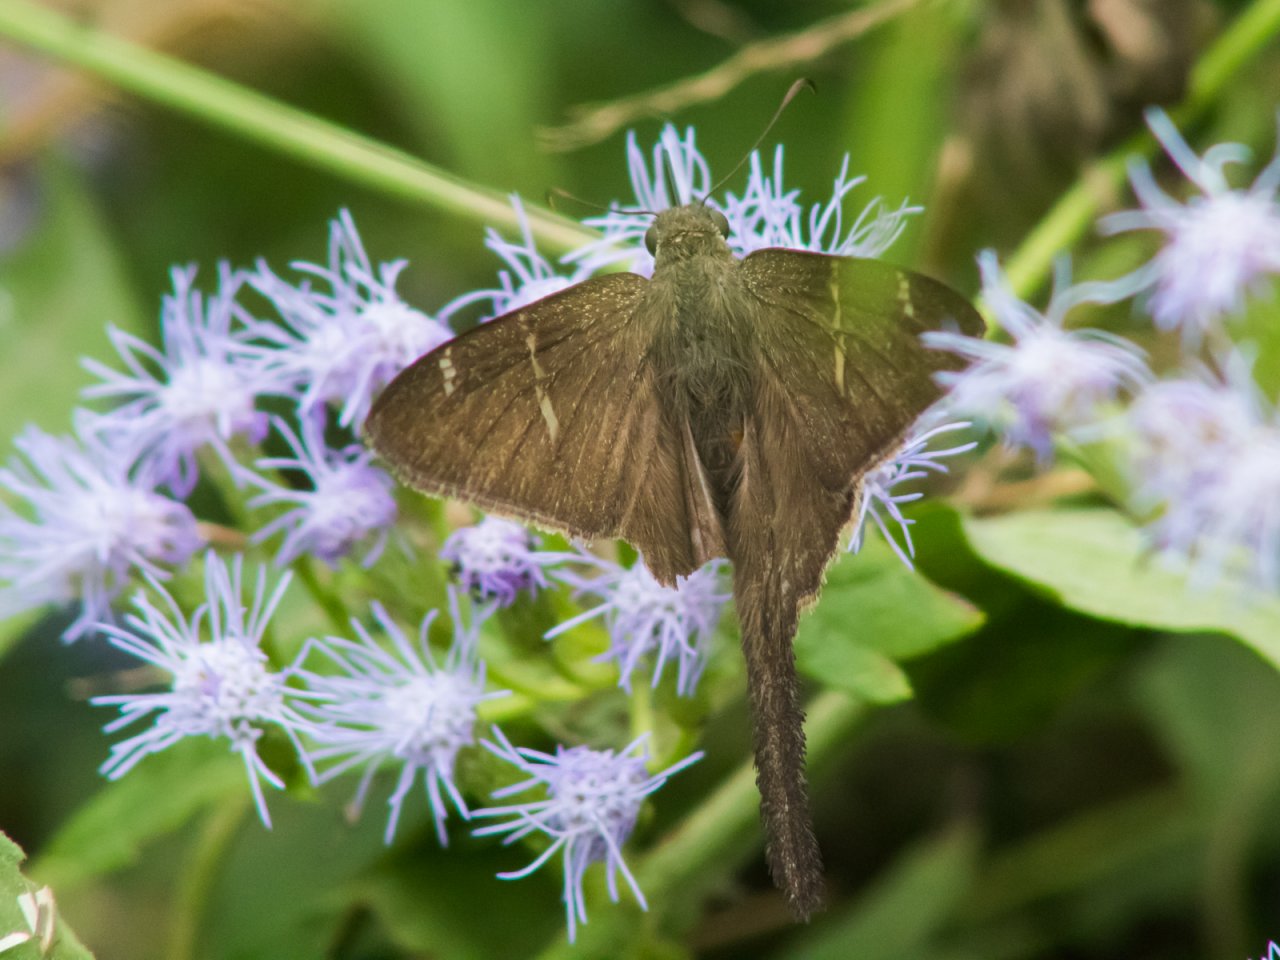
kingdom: Animalia
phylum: Arthropoda
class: Insecta
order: Lepidoptera
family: Hesperiidae
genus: Urbanus
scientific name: Urbanus procne
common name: Brown Longtail
